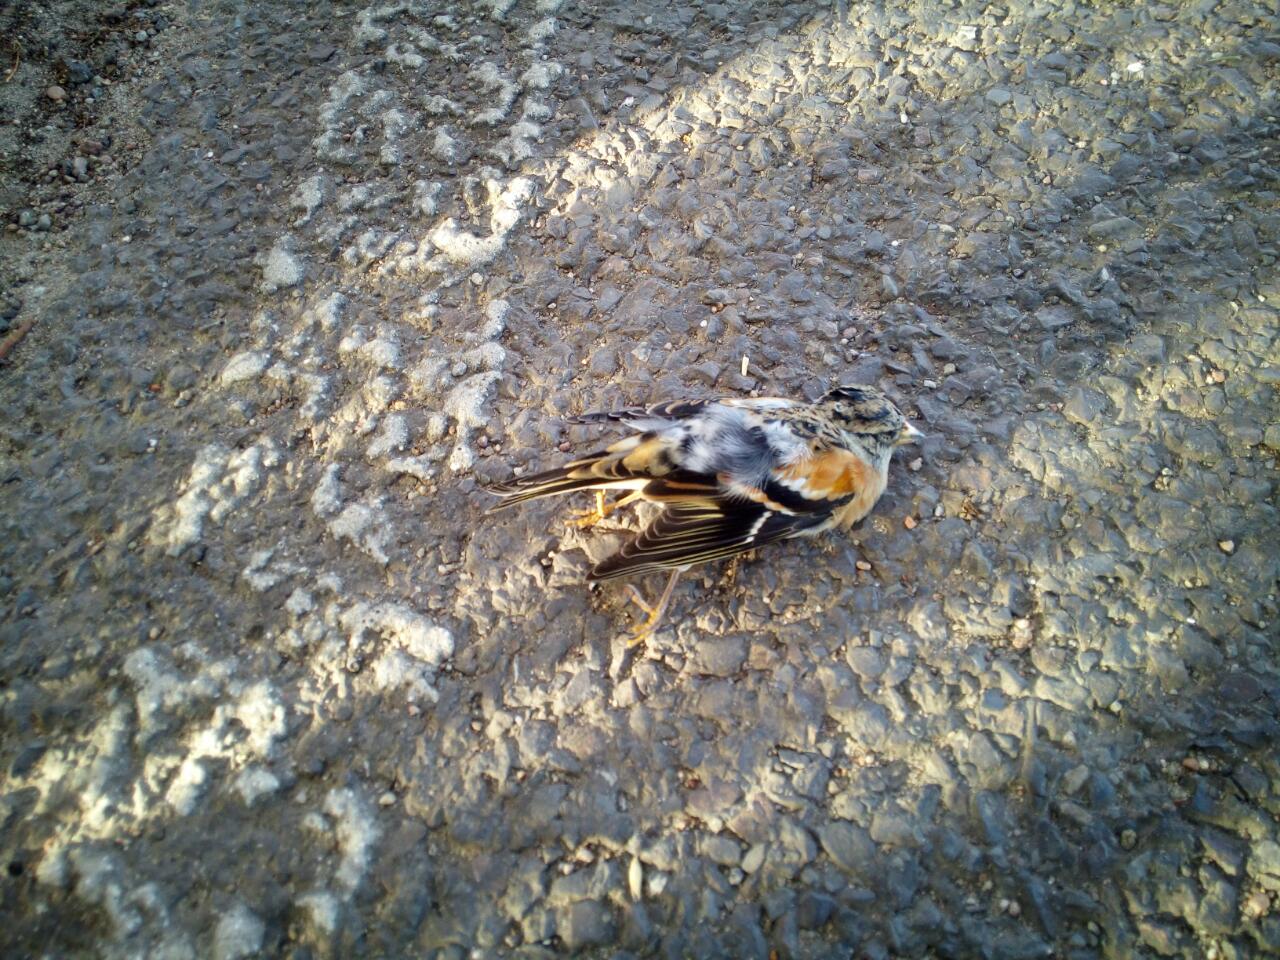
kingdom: Animalia
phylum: Chordata
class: Aves
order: Passeriformes
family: Fringillidae
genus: Fringilla
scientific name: Fringilla montifringilla
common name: Brambling
